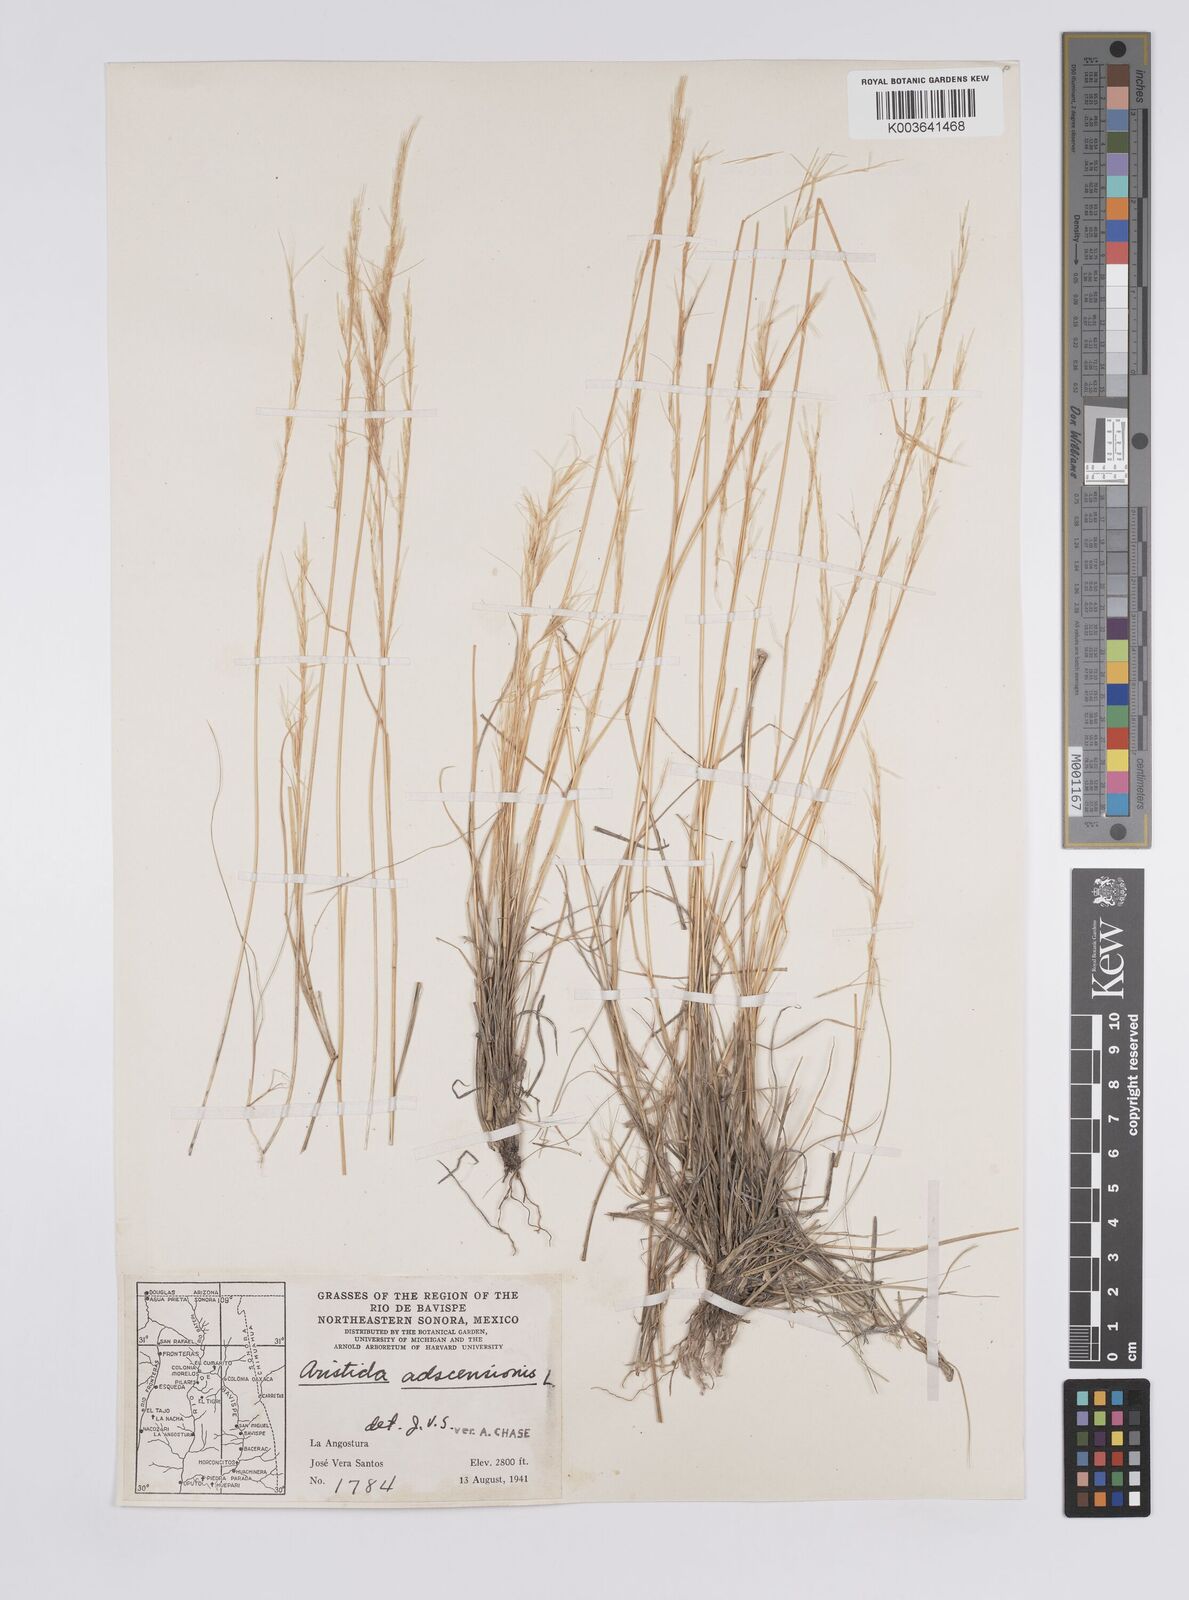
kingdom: Plantae
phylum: Tracheophyta
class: Liliopsida
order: Poales
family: Poaceae
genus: Aristida
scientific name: Aristida adscensionis
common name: Sixweeks threeawn
